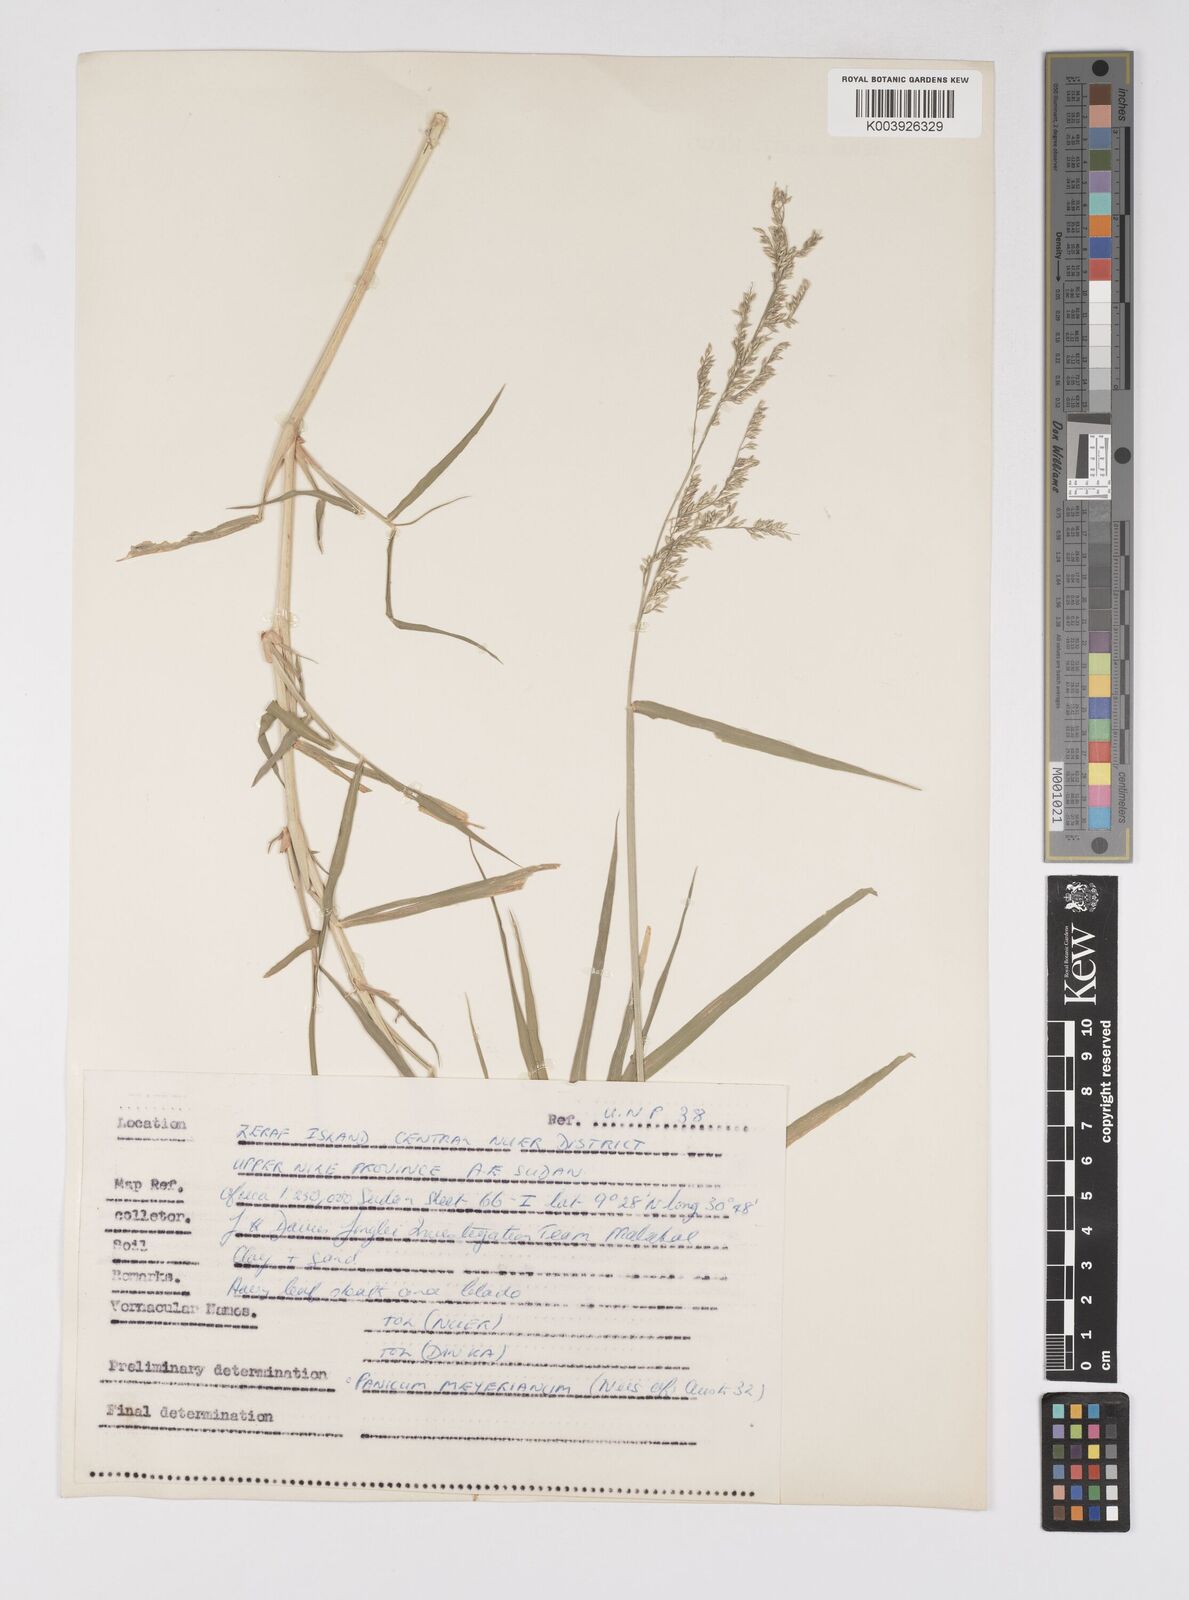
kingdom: Plantae
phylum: Tracheophyta
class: Liliopsida
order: Poales
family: Poaceae
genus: Eriochloa
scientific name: Eriochloa meyeriana
